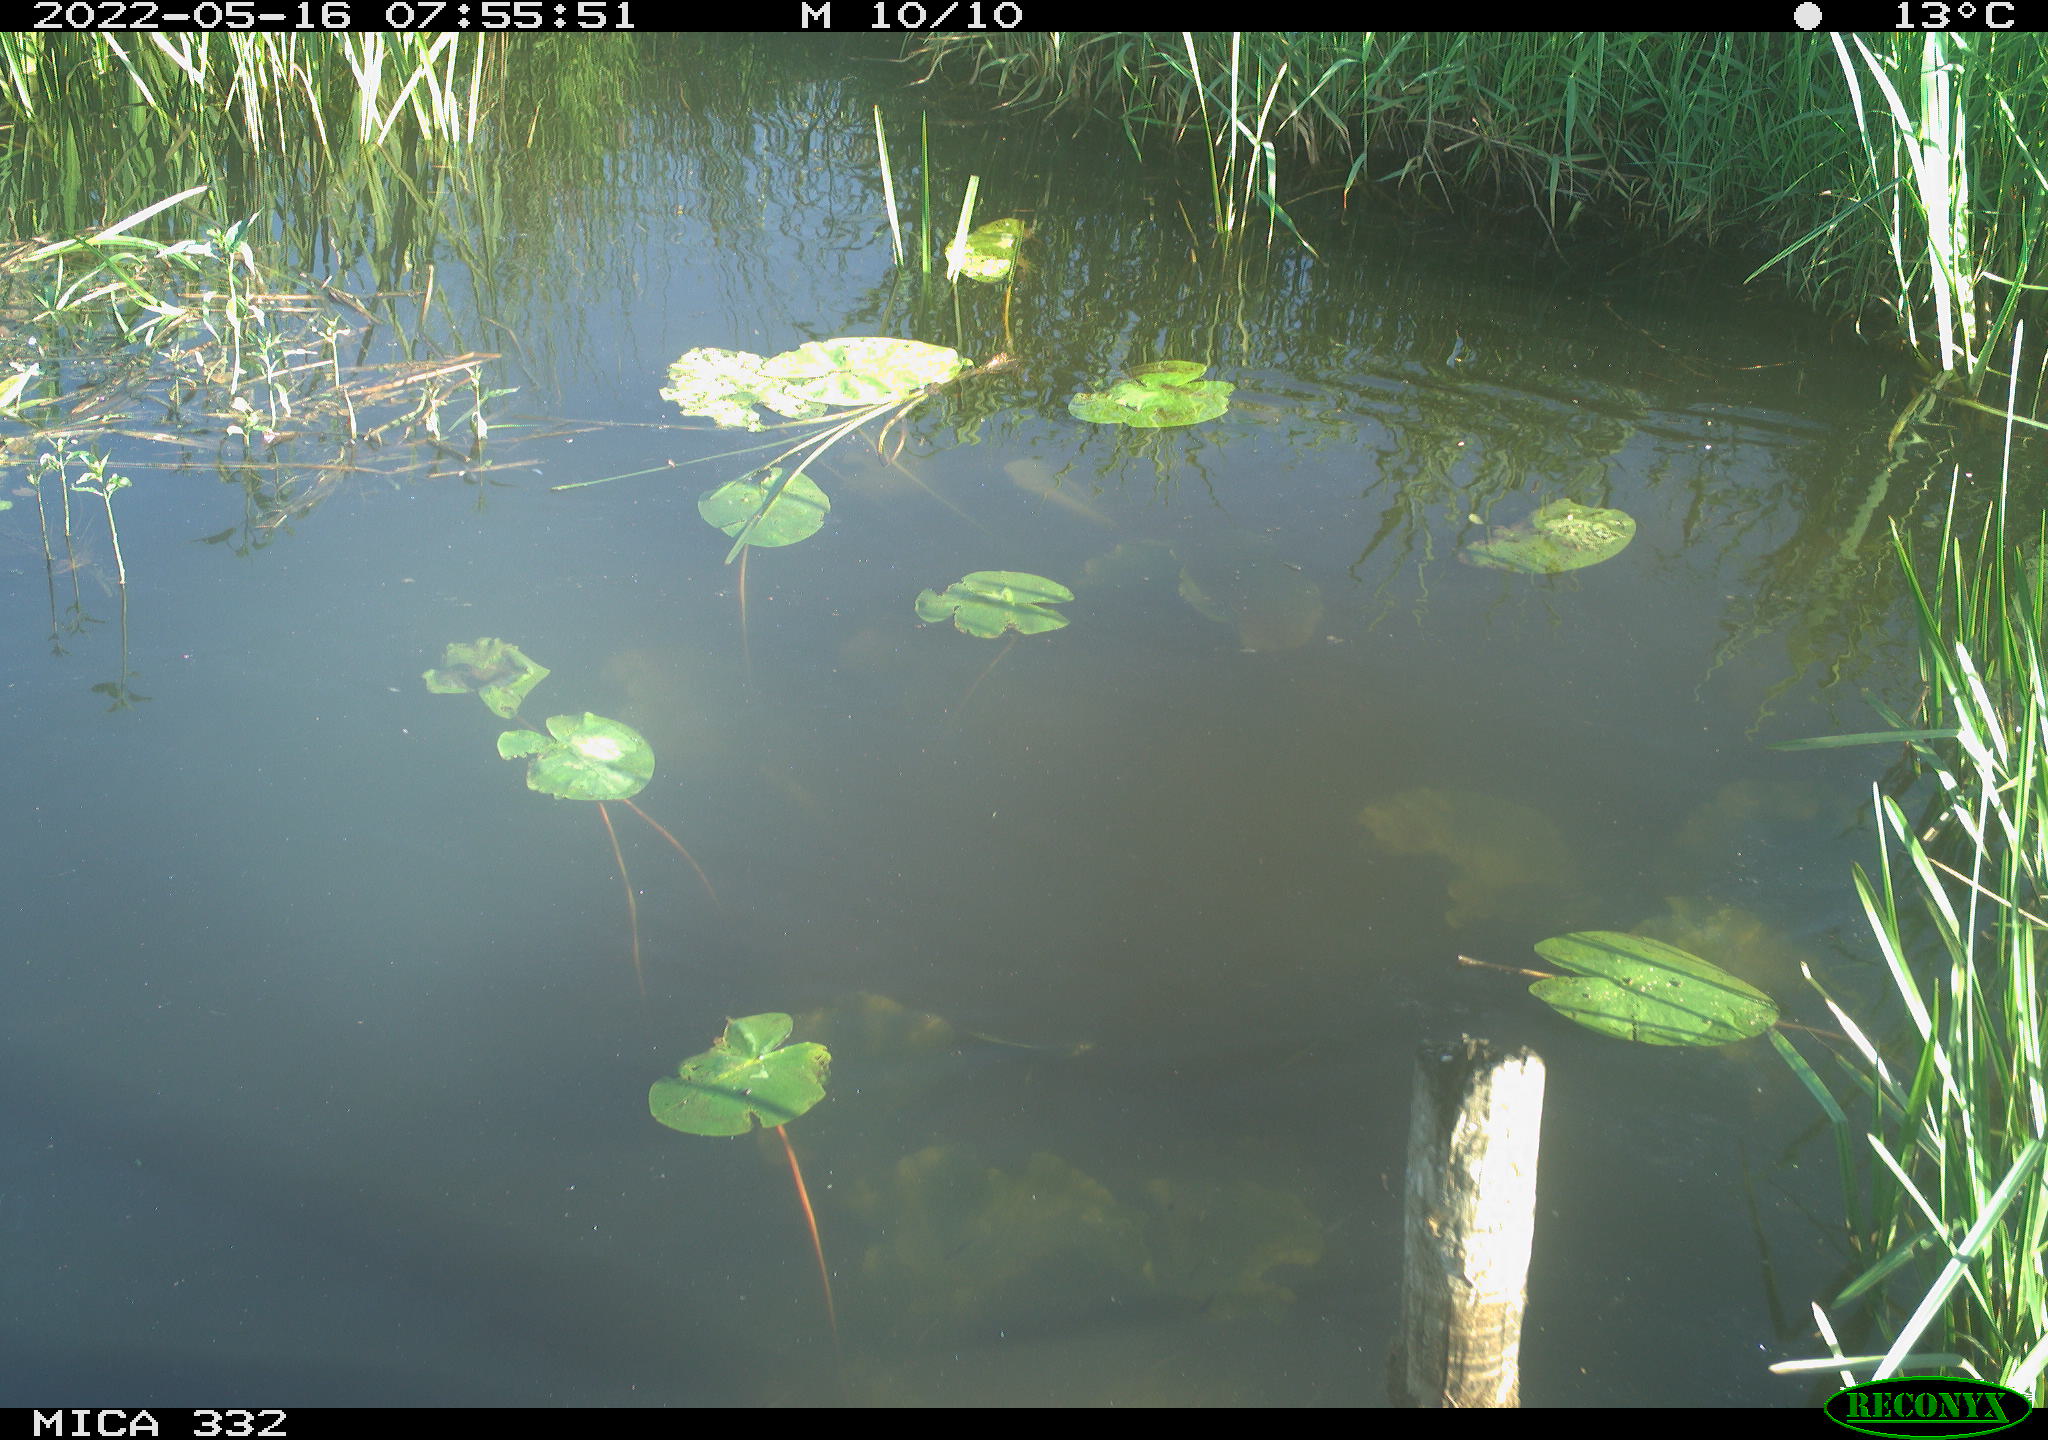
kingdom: Animalia
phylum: Chordata
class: Aves
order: Anseriformes
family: Anatidae
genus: Anas
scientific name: Anas platyrhynchos
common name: Mallard
